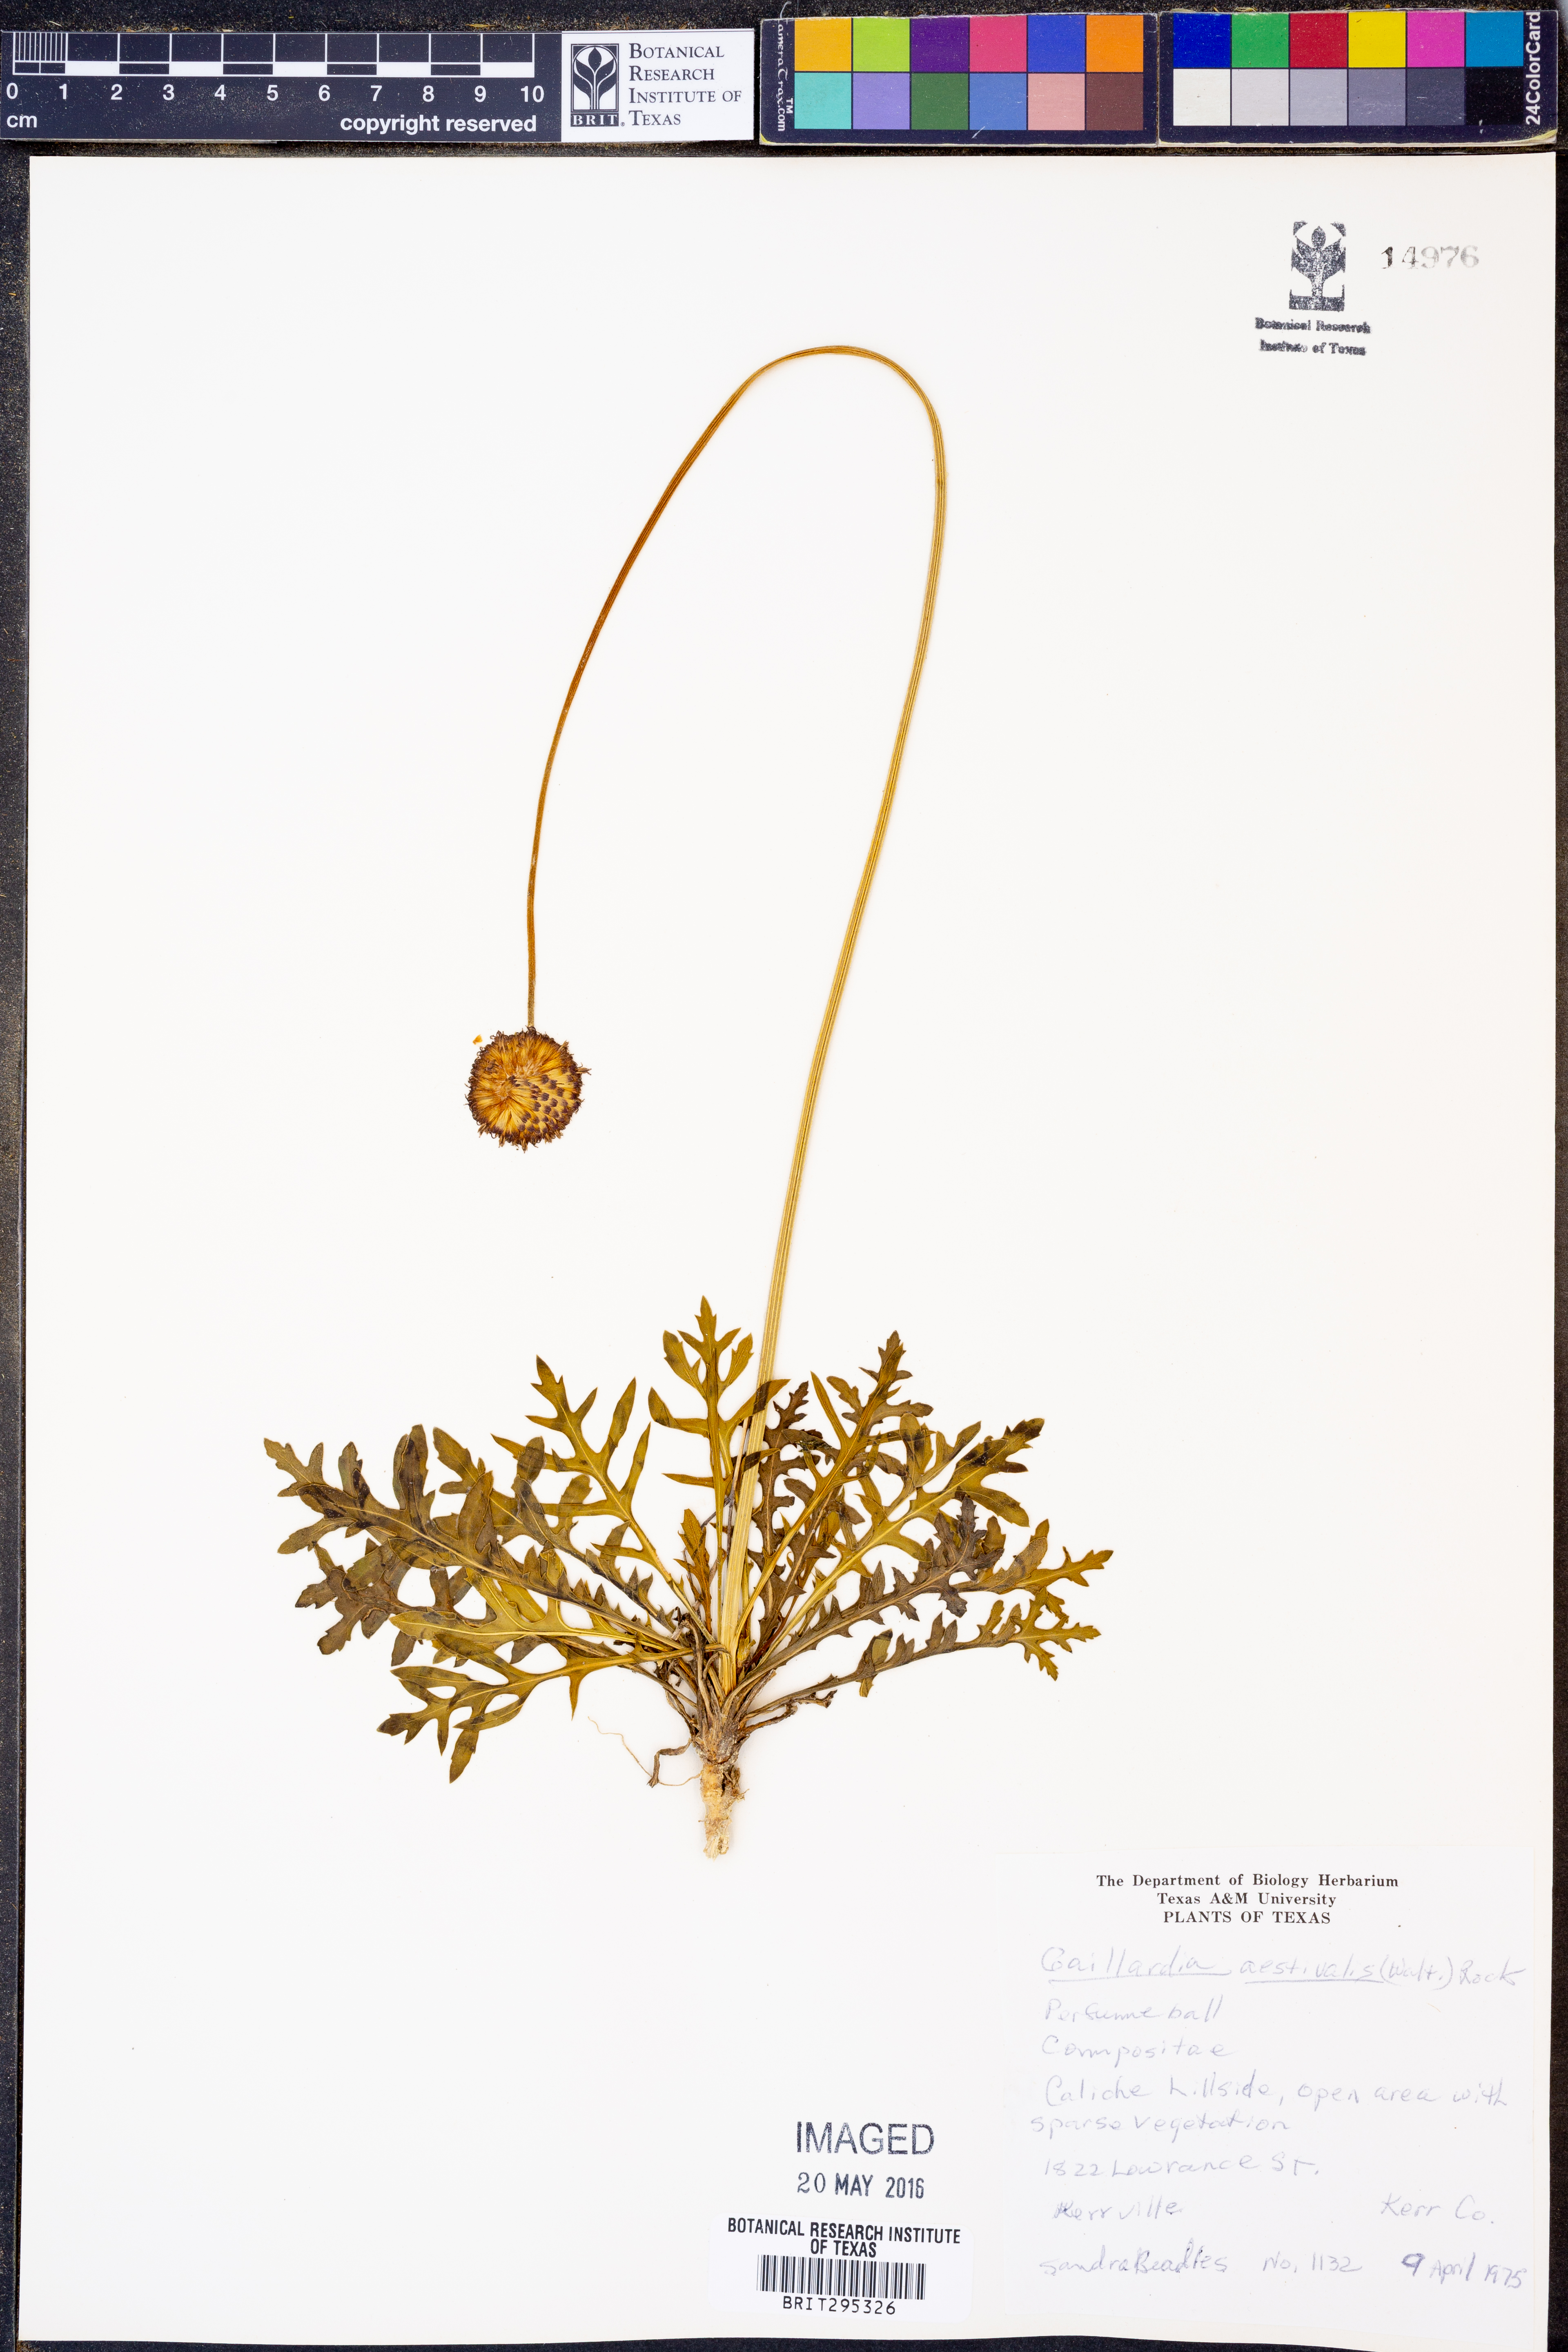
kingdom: Plantae
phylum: Tracheophyta
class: Magnoliopsida
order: Asterales
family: Asteraceae
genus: Gaillardia
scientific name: Gaillardia aestivalis
